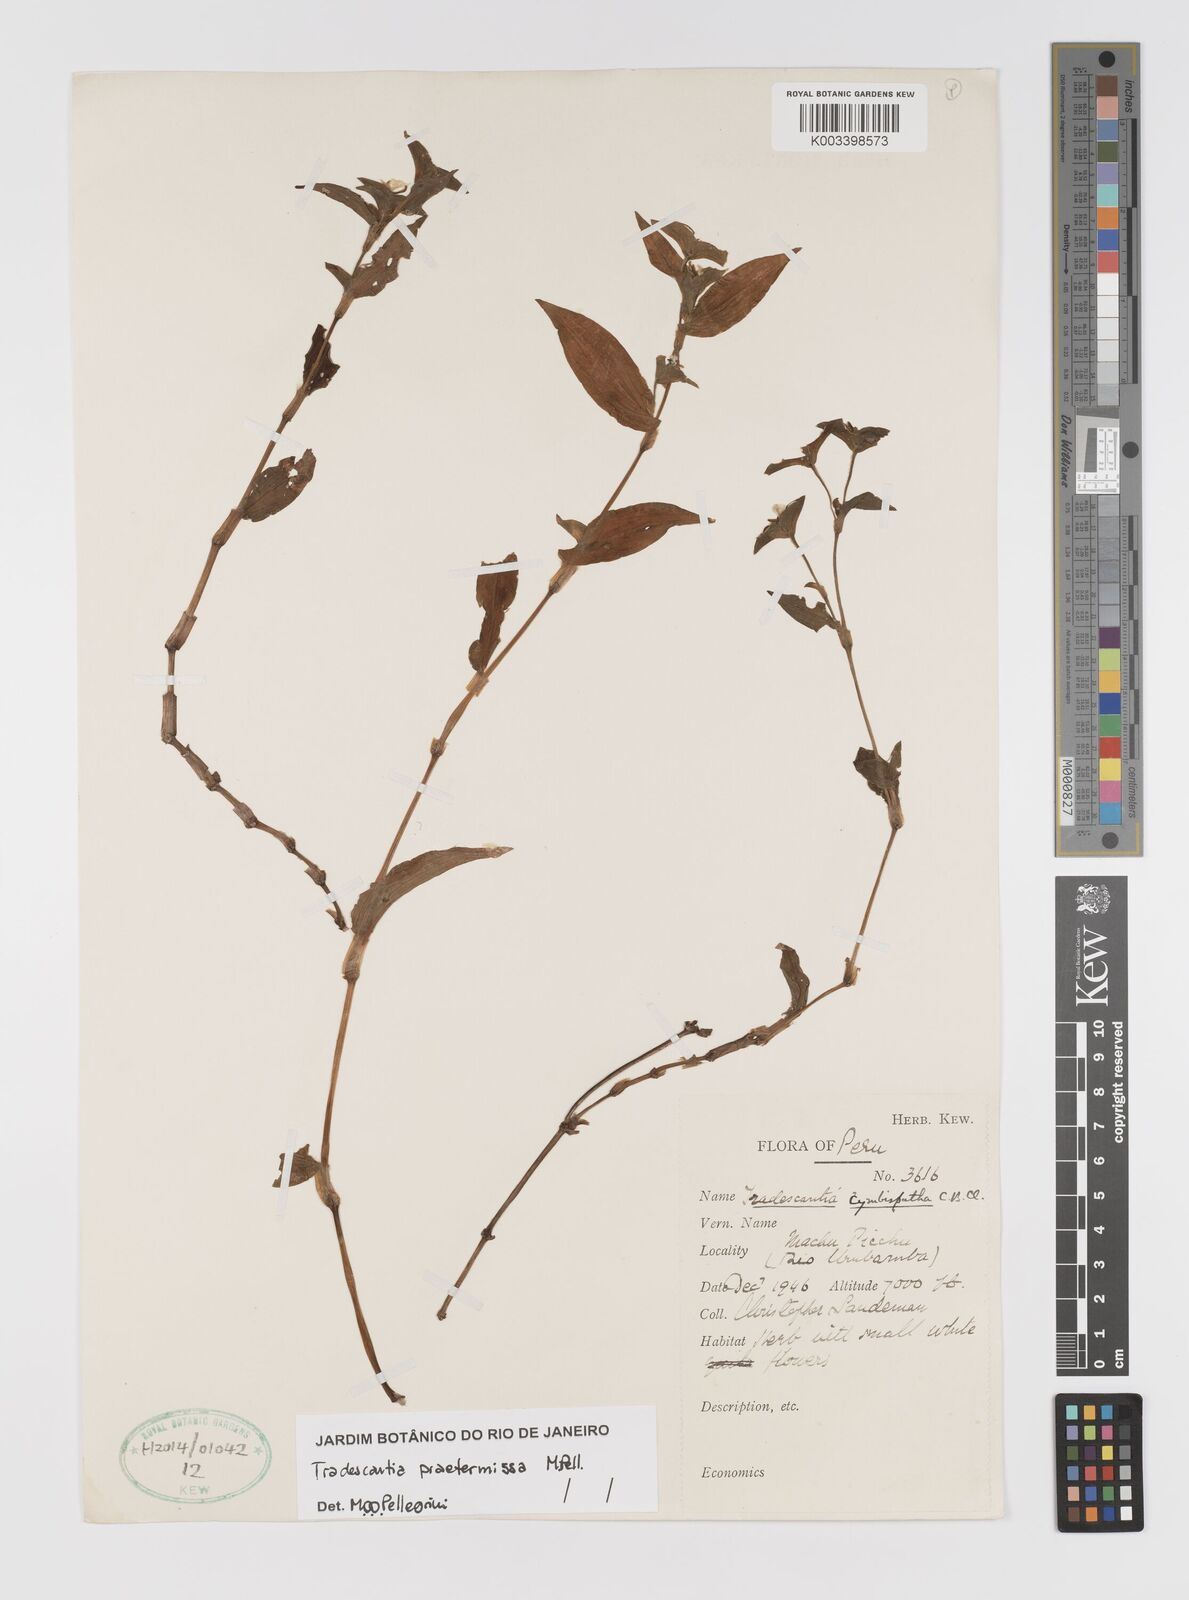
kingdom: Plantae
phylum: Tracheophyta
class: Liliopsida
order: Commelinales
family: Commelinaceae
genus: Tradescantia
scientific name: Tradescantia praetermissa
